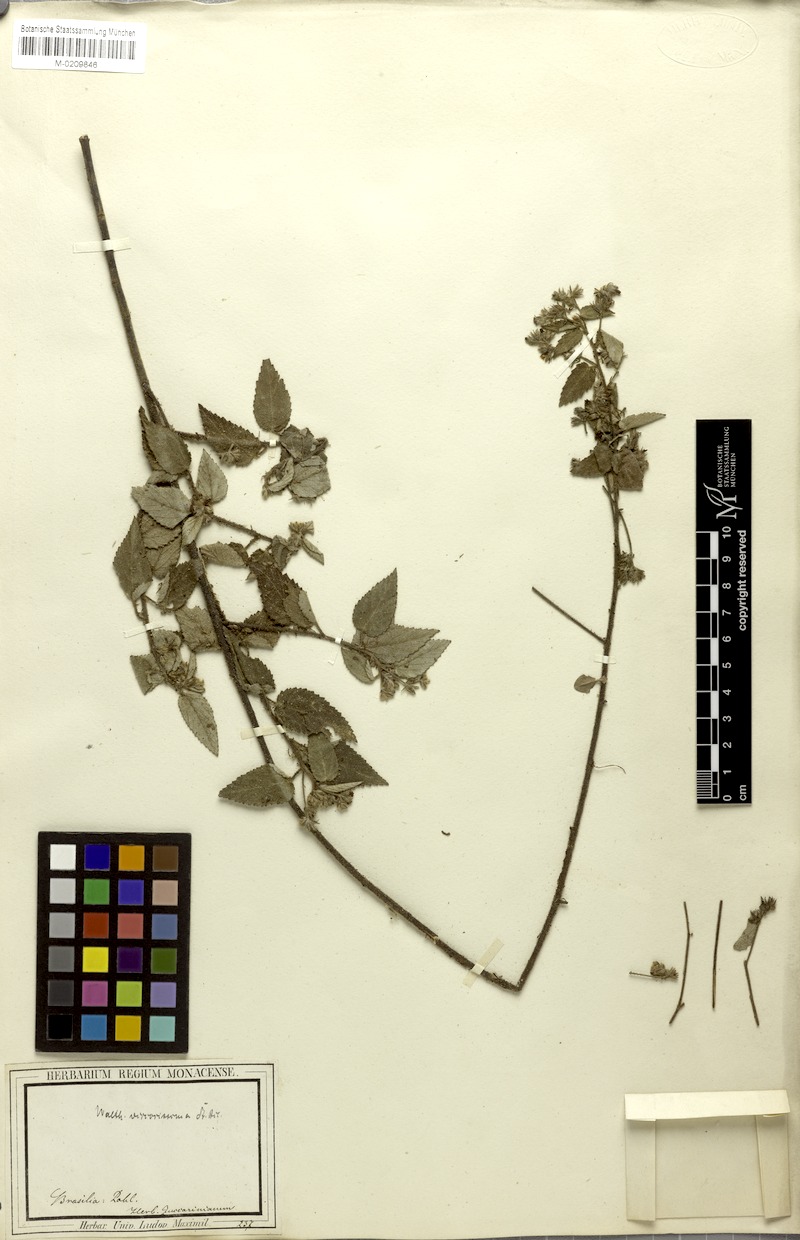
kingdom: Plantae
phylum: Tracheophyta
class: Magnoliopsida
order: Malvales
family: Malvaceae
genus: Waltheria
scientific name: Waltheria viscosissima
